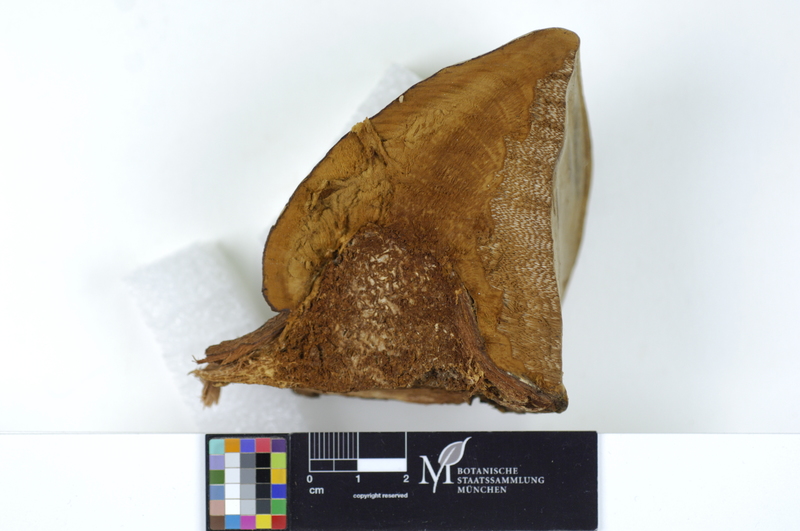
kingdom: Plantae
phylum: Tracheophyta
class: Magnoliopsida
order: Malpighiales
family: Salicaceae
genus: Salix
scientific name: Salix alba
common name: White willow
